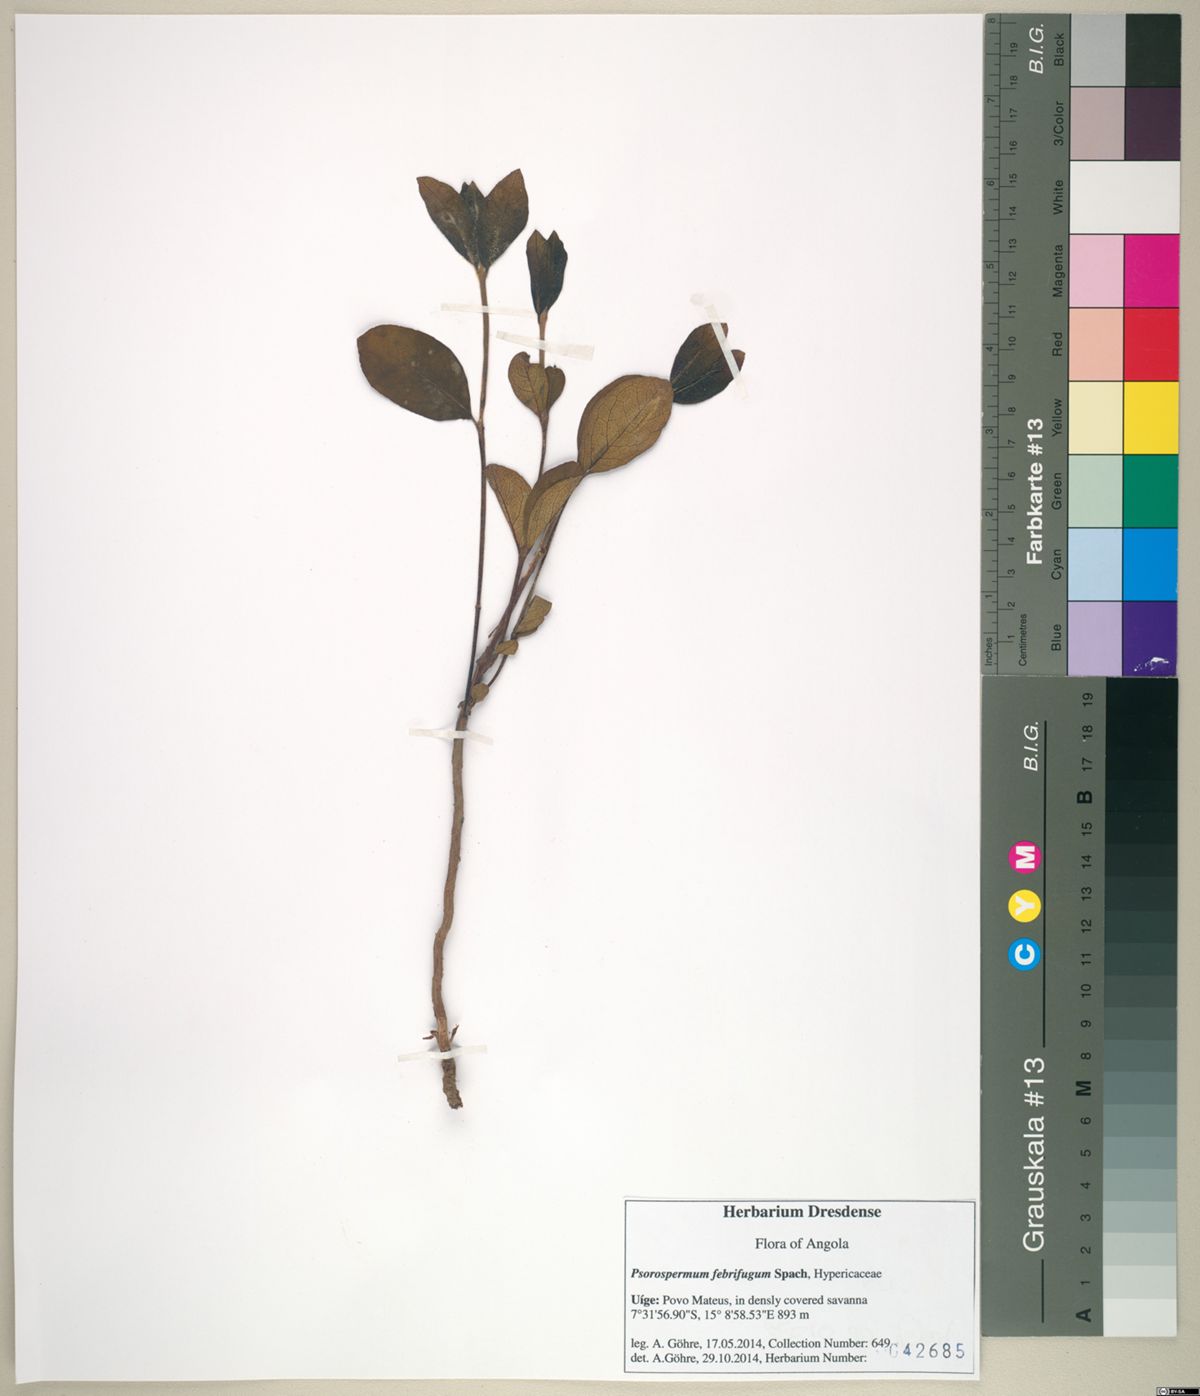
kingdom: Plantae
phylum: Tracheophyta
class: Magnoliopsida
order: Malpighiales
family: Hypericaceae
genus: Psorospermum
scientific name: Psorospermum febrifugum
